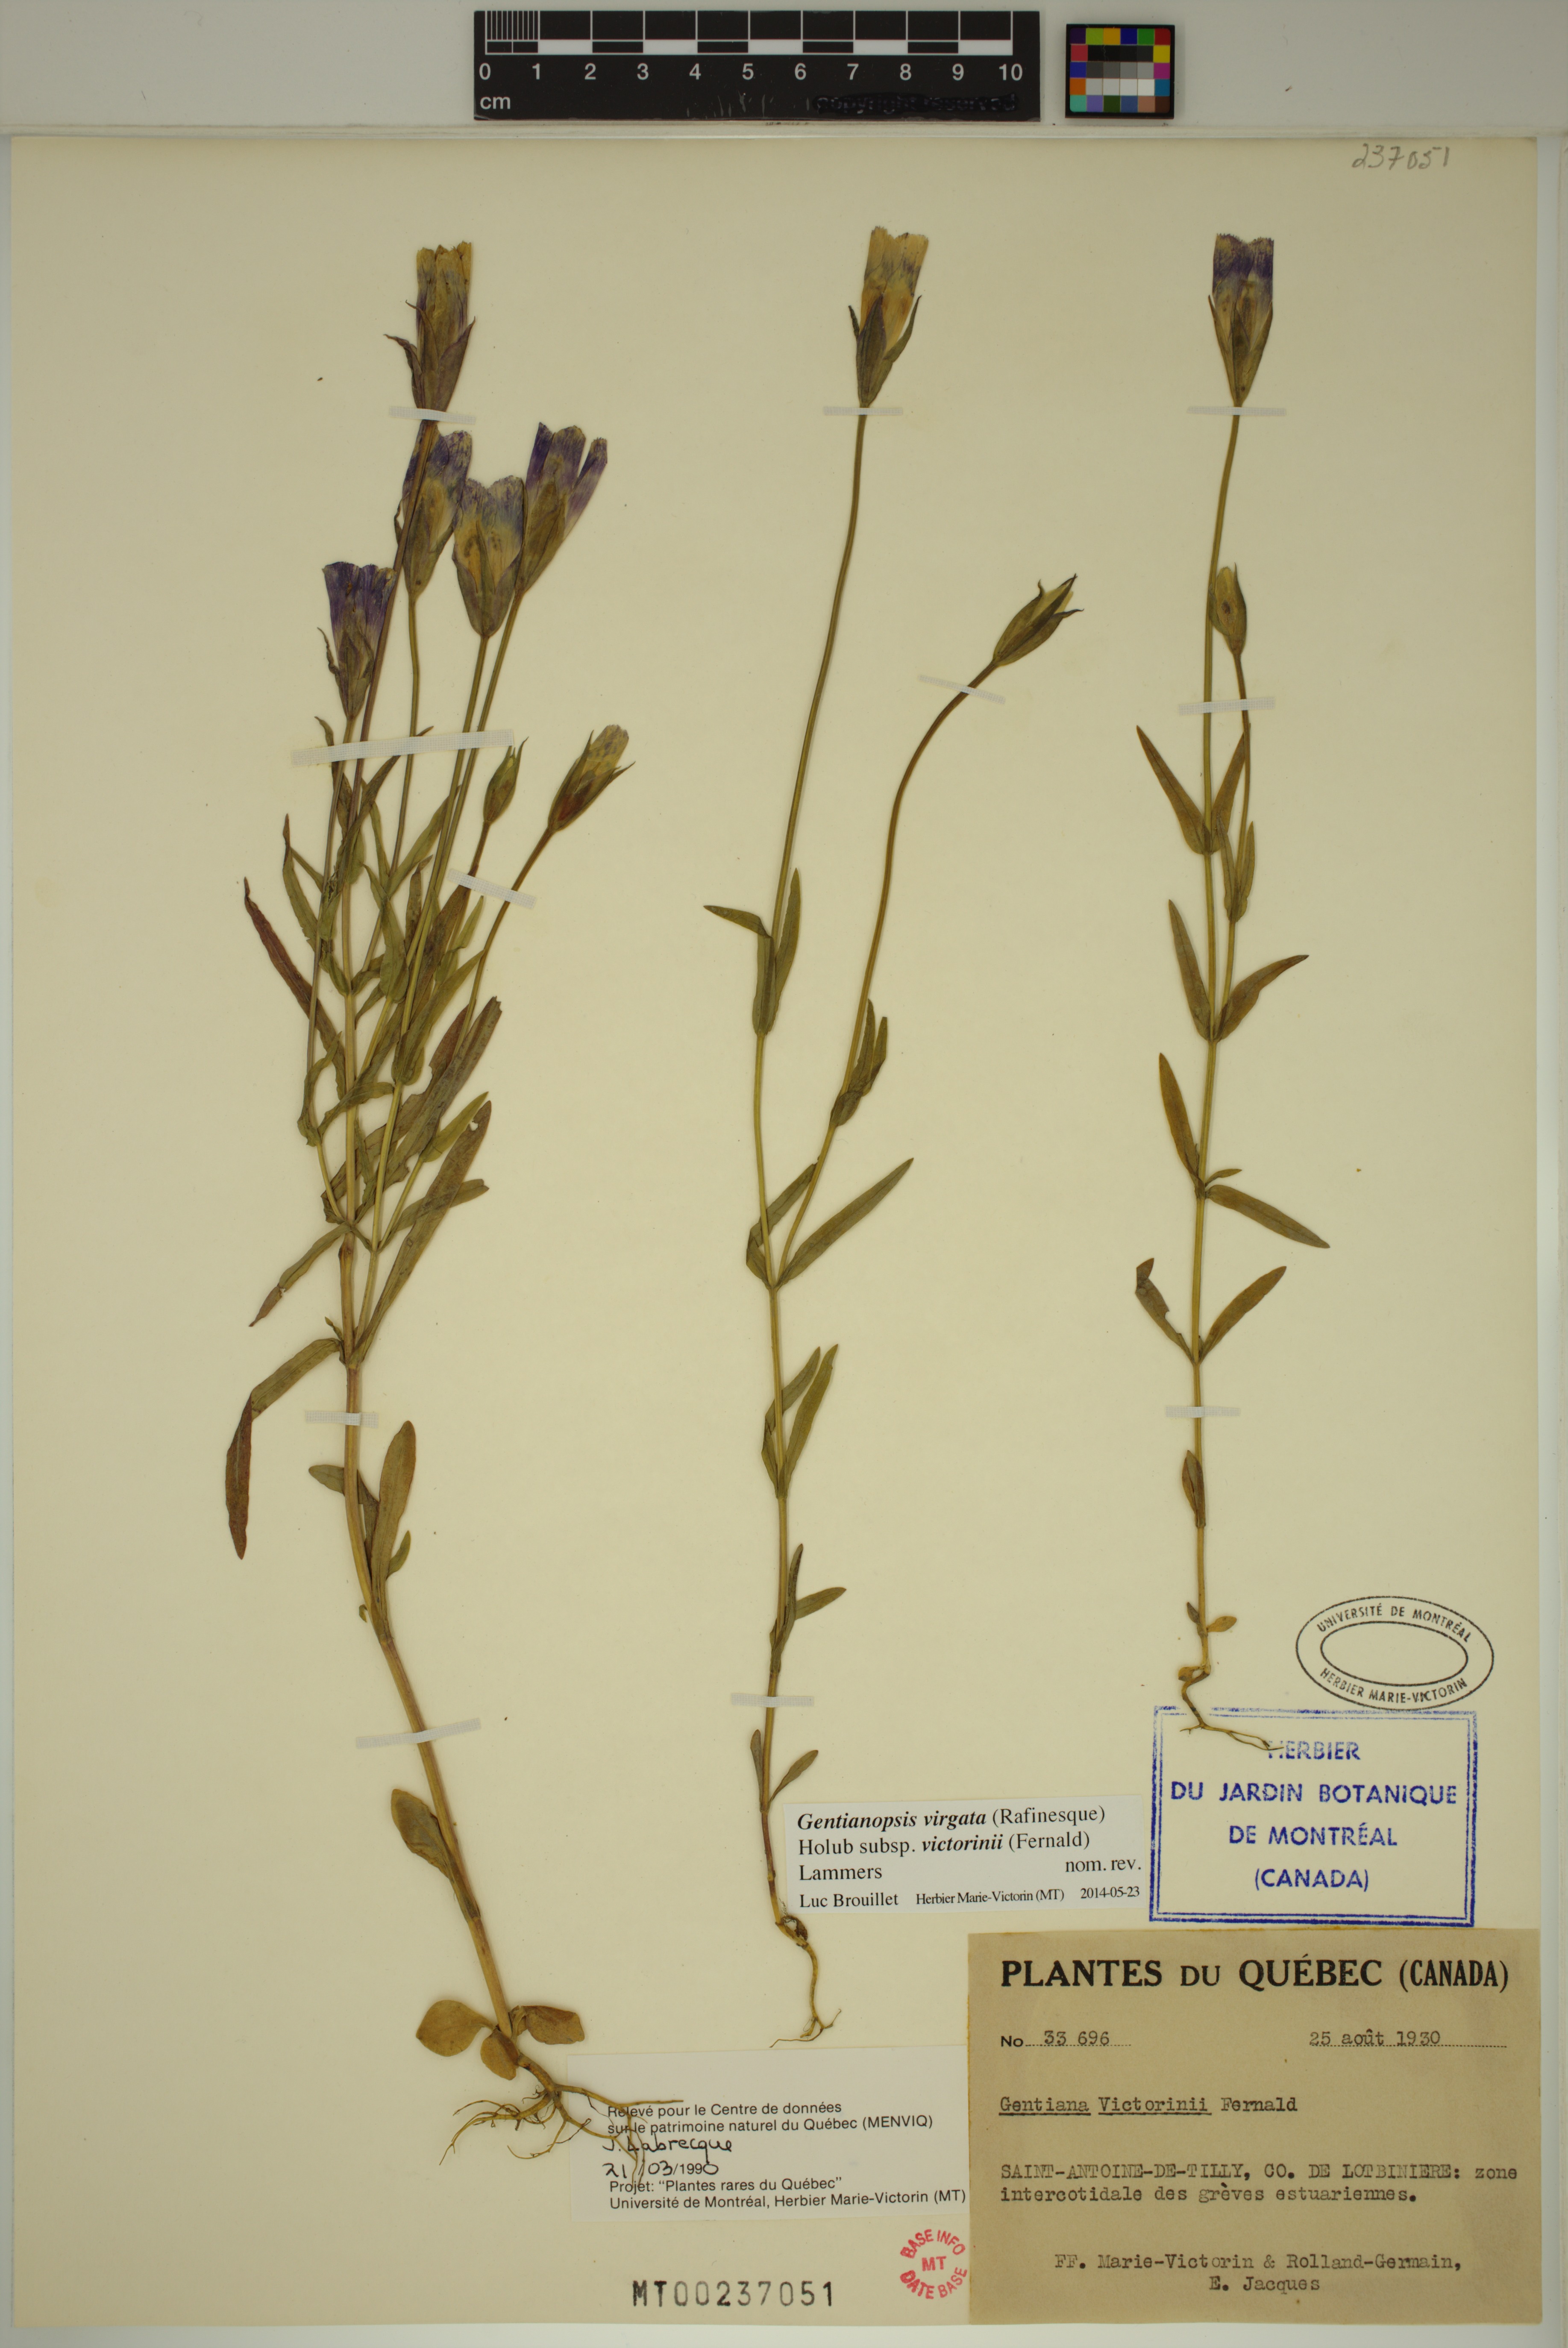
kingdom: Plantae
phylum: Tracheophyta
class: Magnoliopsida
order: Gentianales
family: Gentianaceae
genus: Gentianopsis
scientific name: Gentianopsis victorinii
